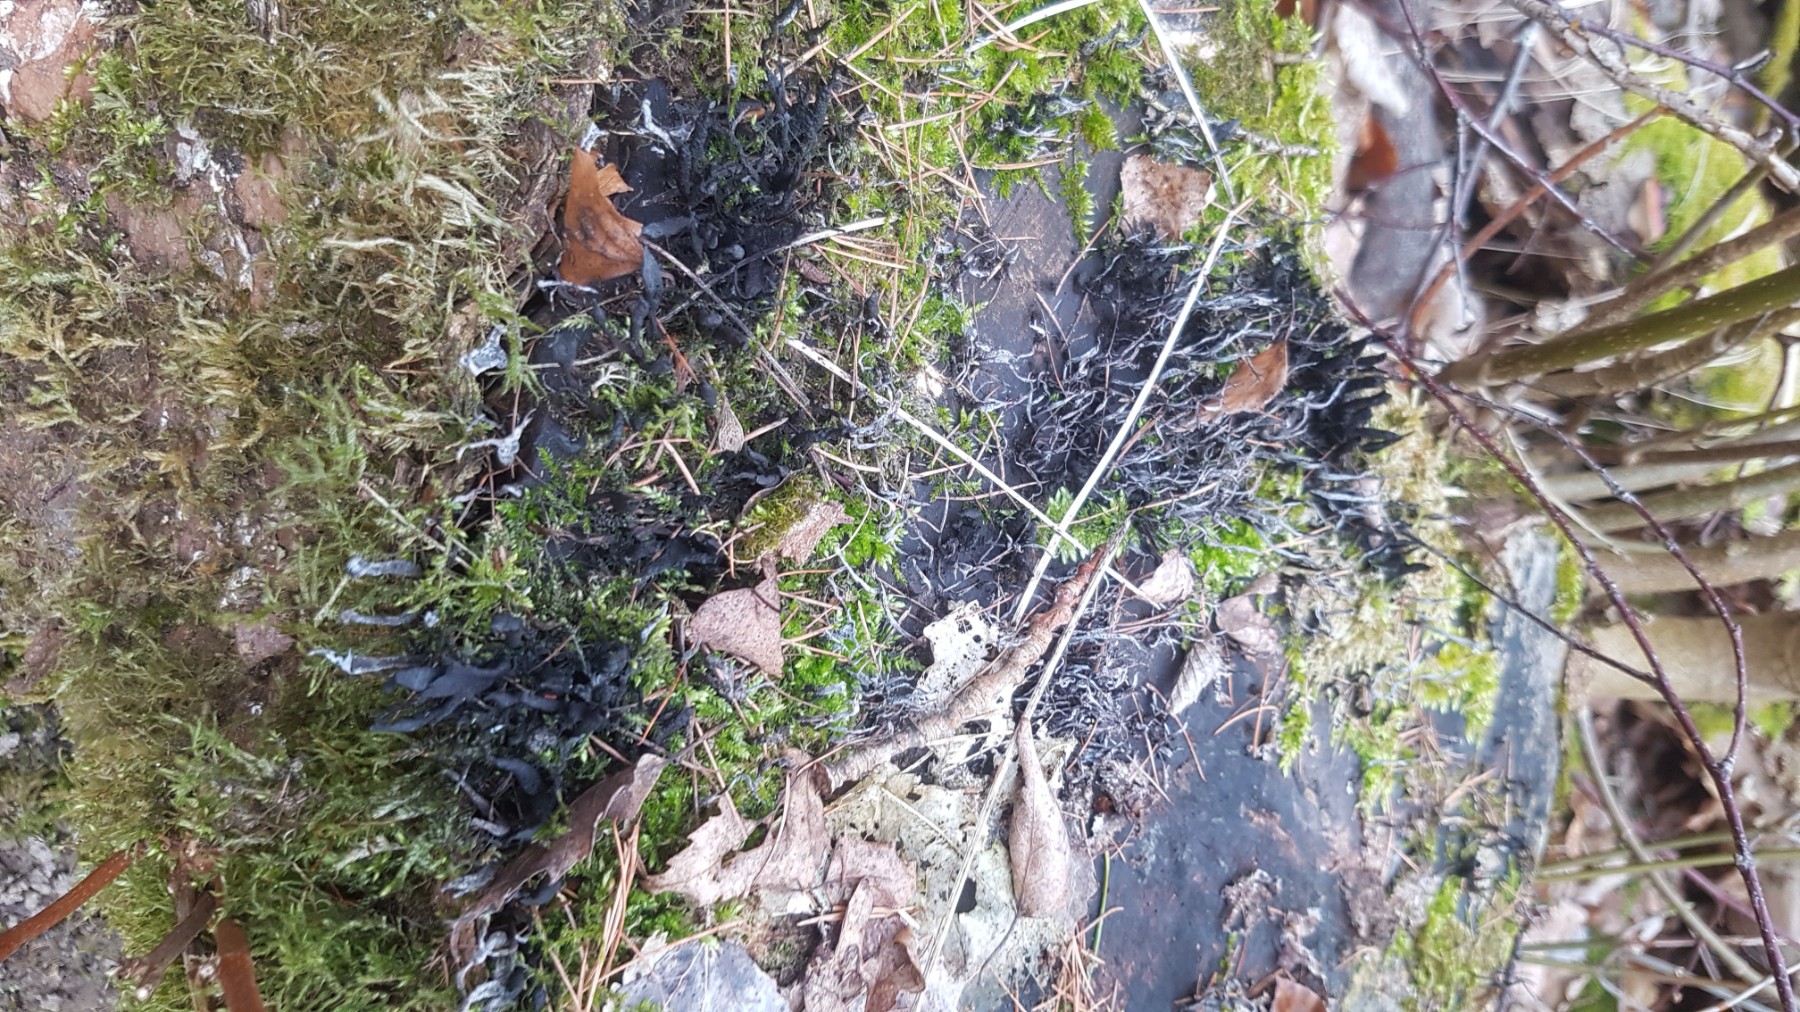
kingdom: Fungi
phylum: Ascomycota
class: Sordariomycetes
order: Xylariales
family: Xylariaceae
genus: Xylaria
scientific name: Xylaria hypoxylon
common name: grenet stødsvamp
